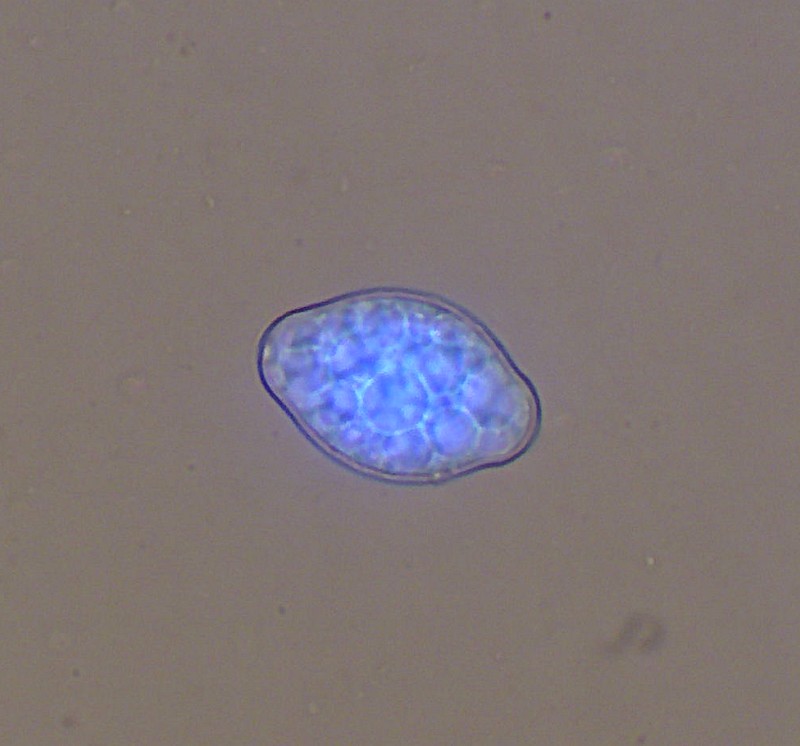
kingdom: Fungi
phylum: Ascomycota
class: Leotiomycetes
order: Helotiales
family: Erysiphaceae
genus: Golovinomyces
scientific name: Golovinomyces depressus
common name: Burdock mildew
